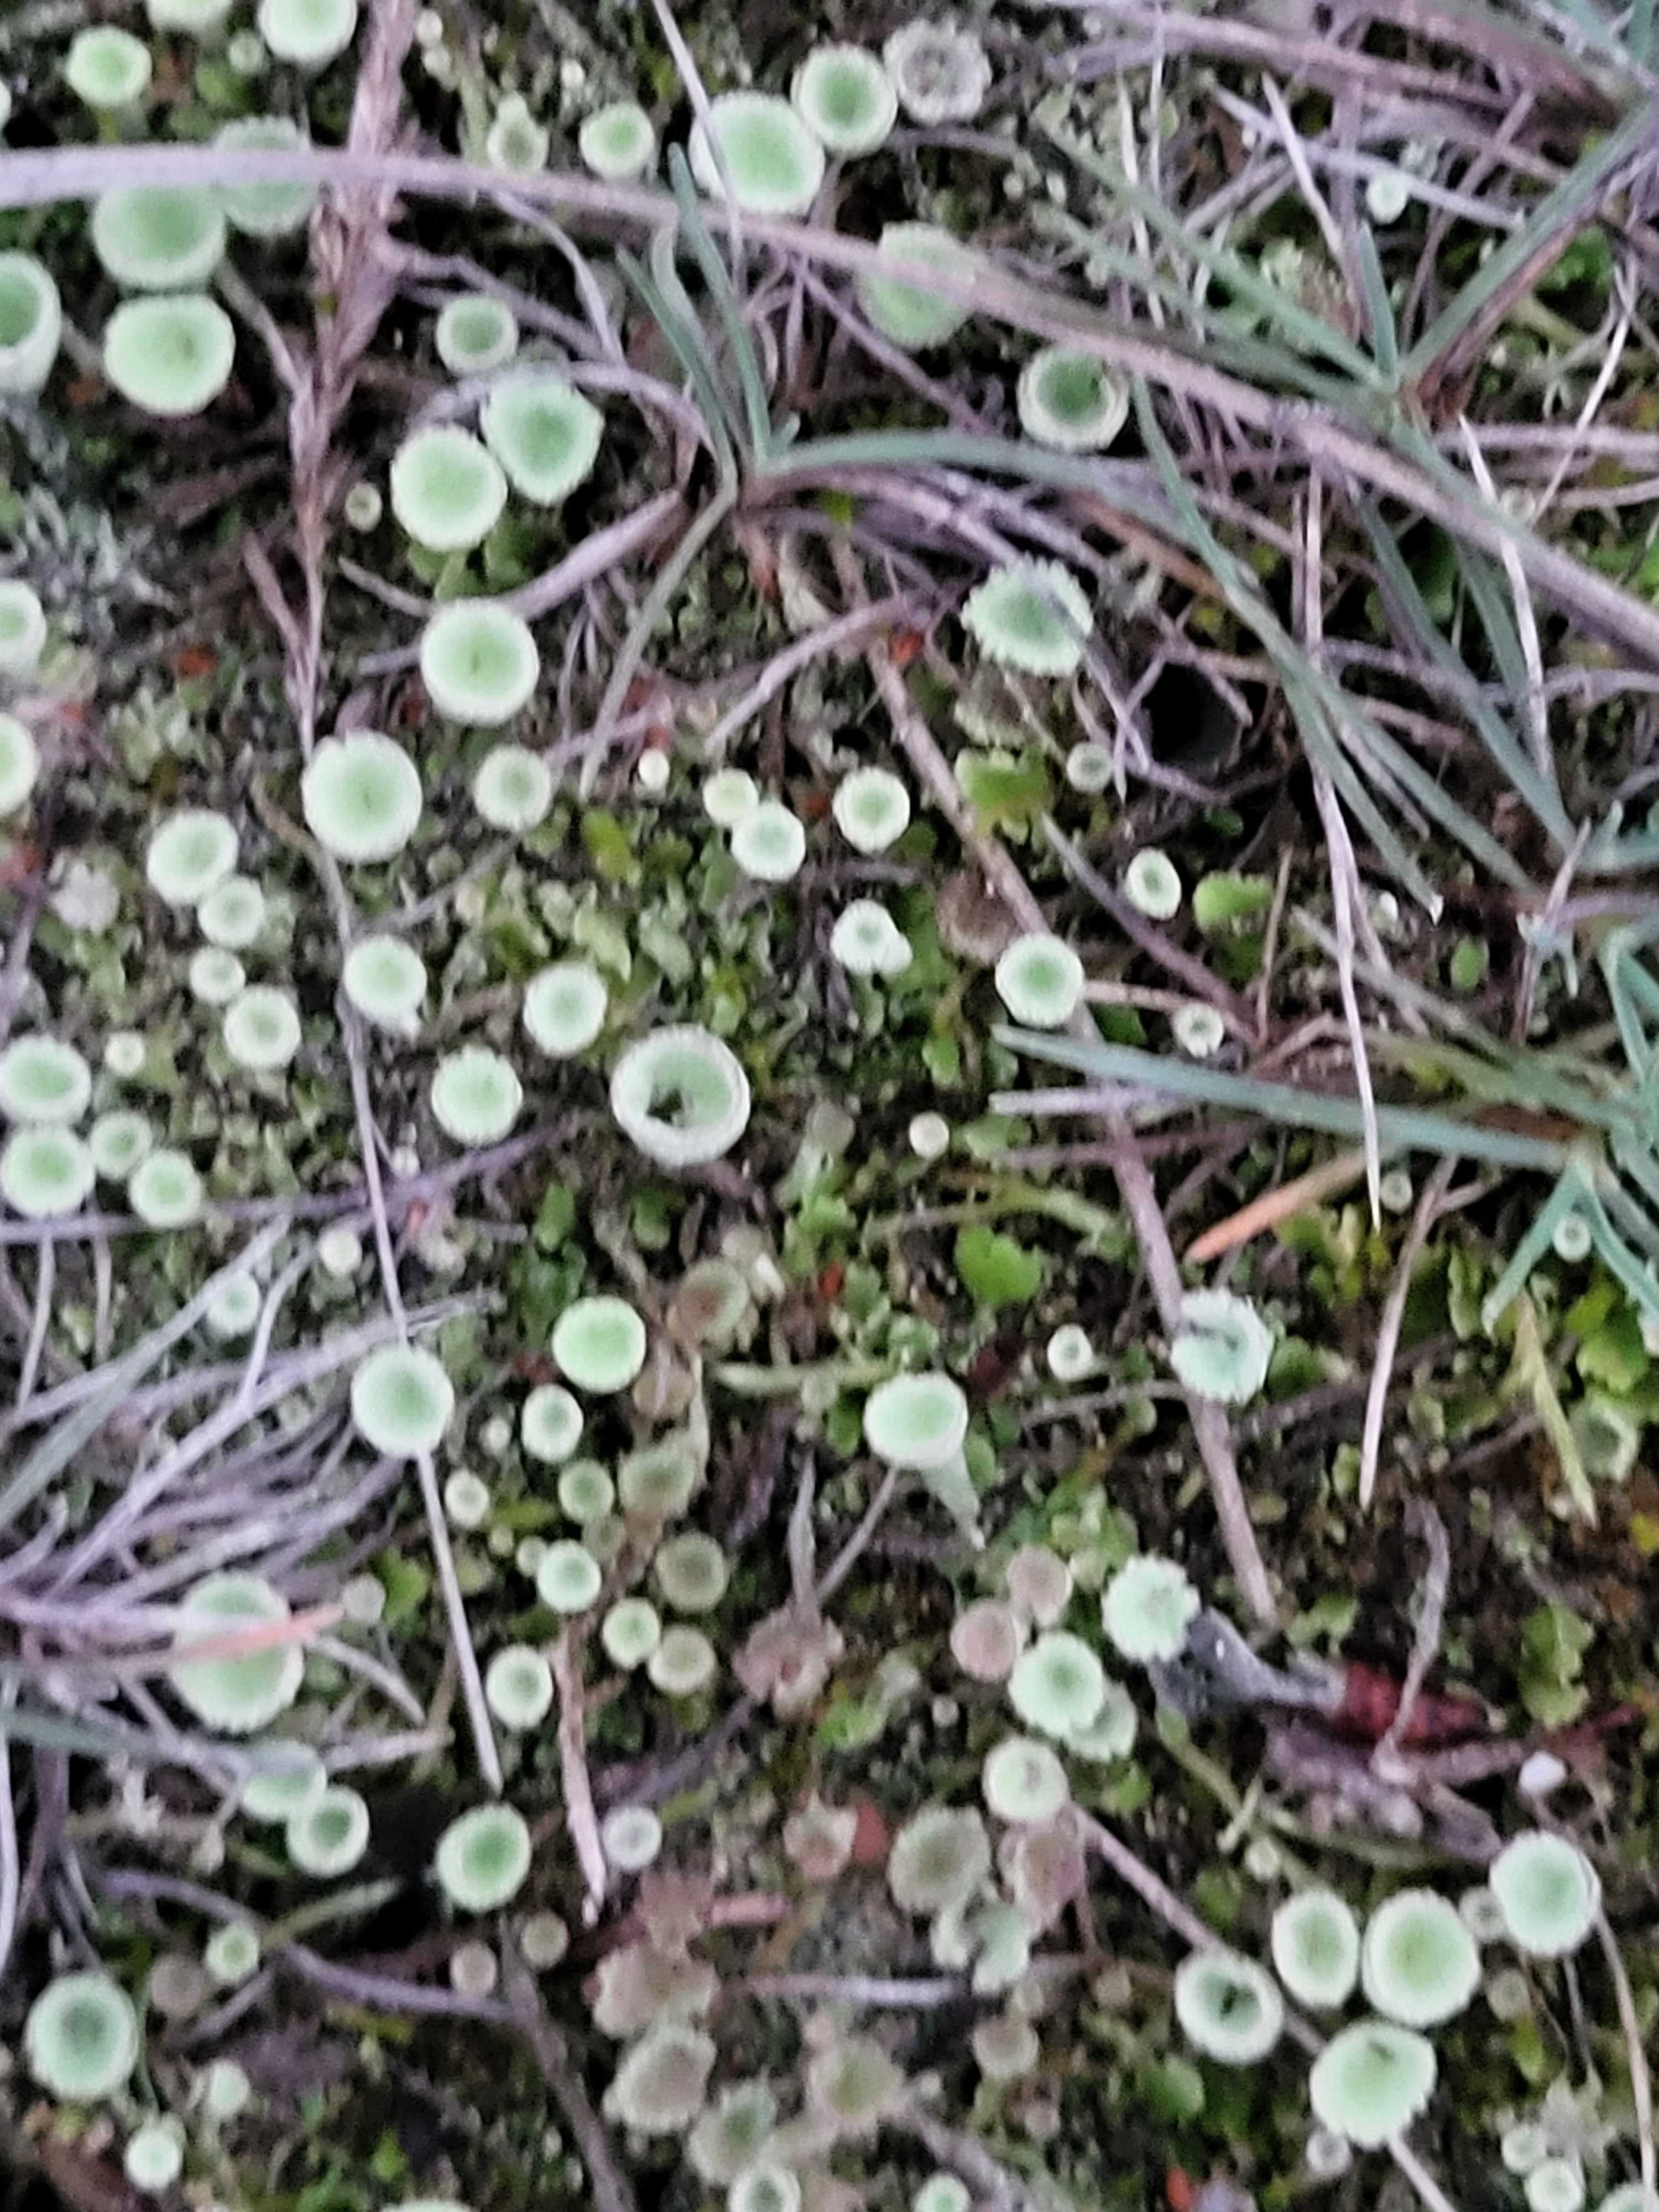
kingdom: Fungi
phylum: Ascomycota
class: Lecanoromycetes
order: Lecanorales
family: Cladoniaceae
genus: Cladonia
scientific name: Cladonia
